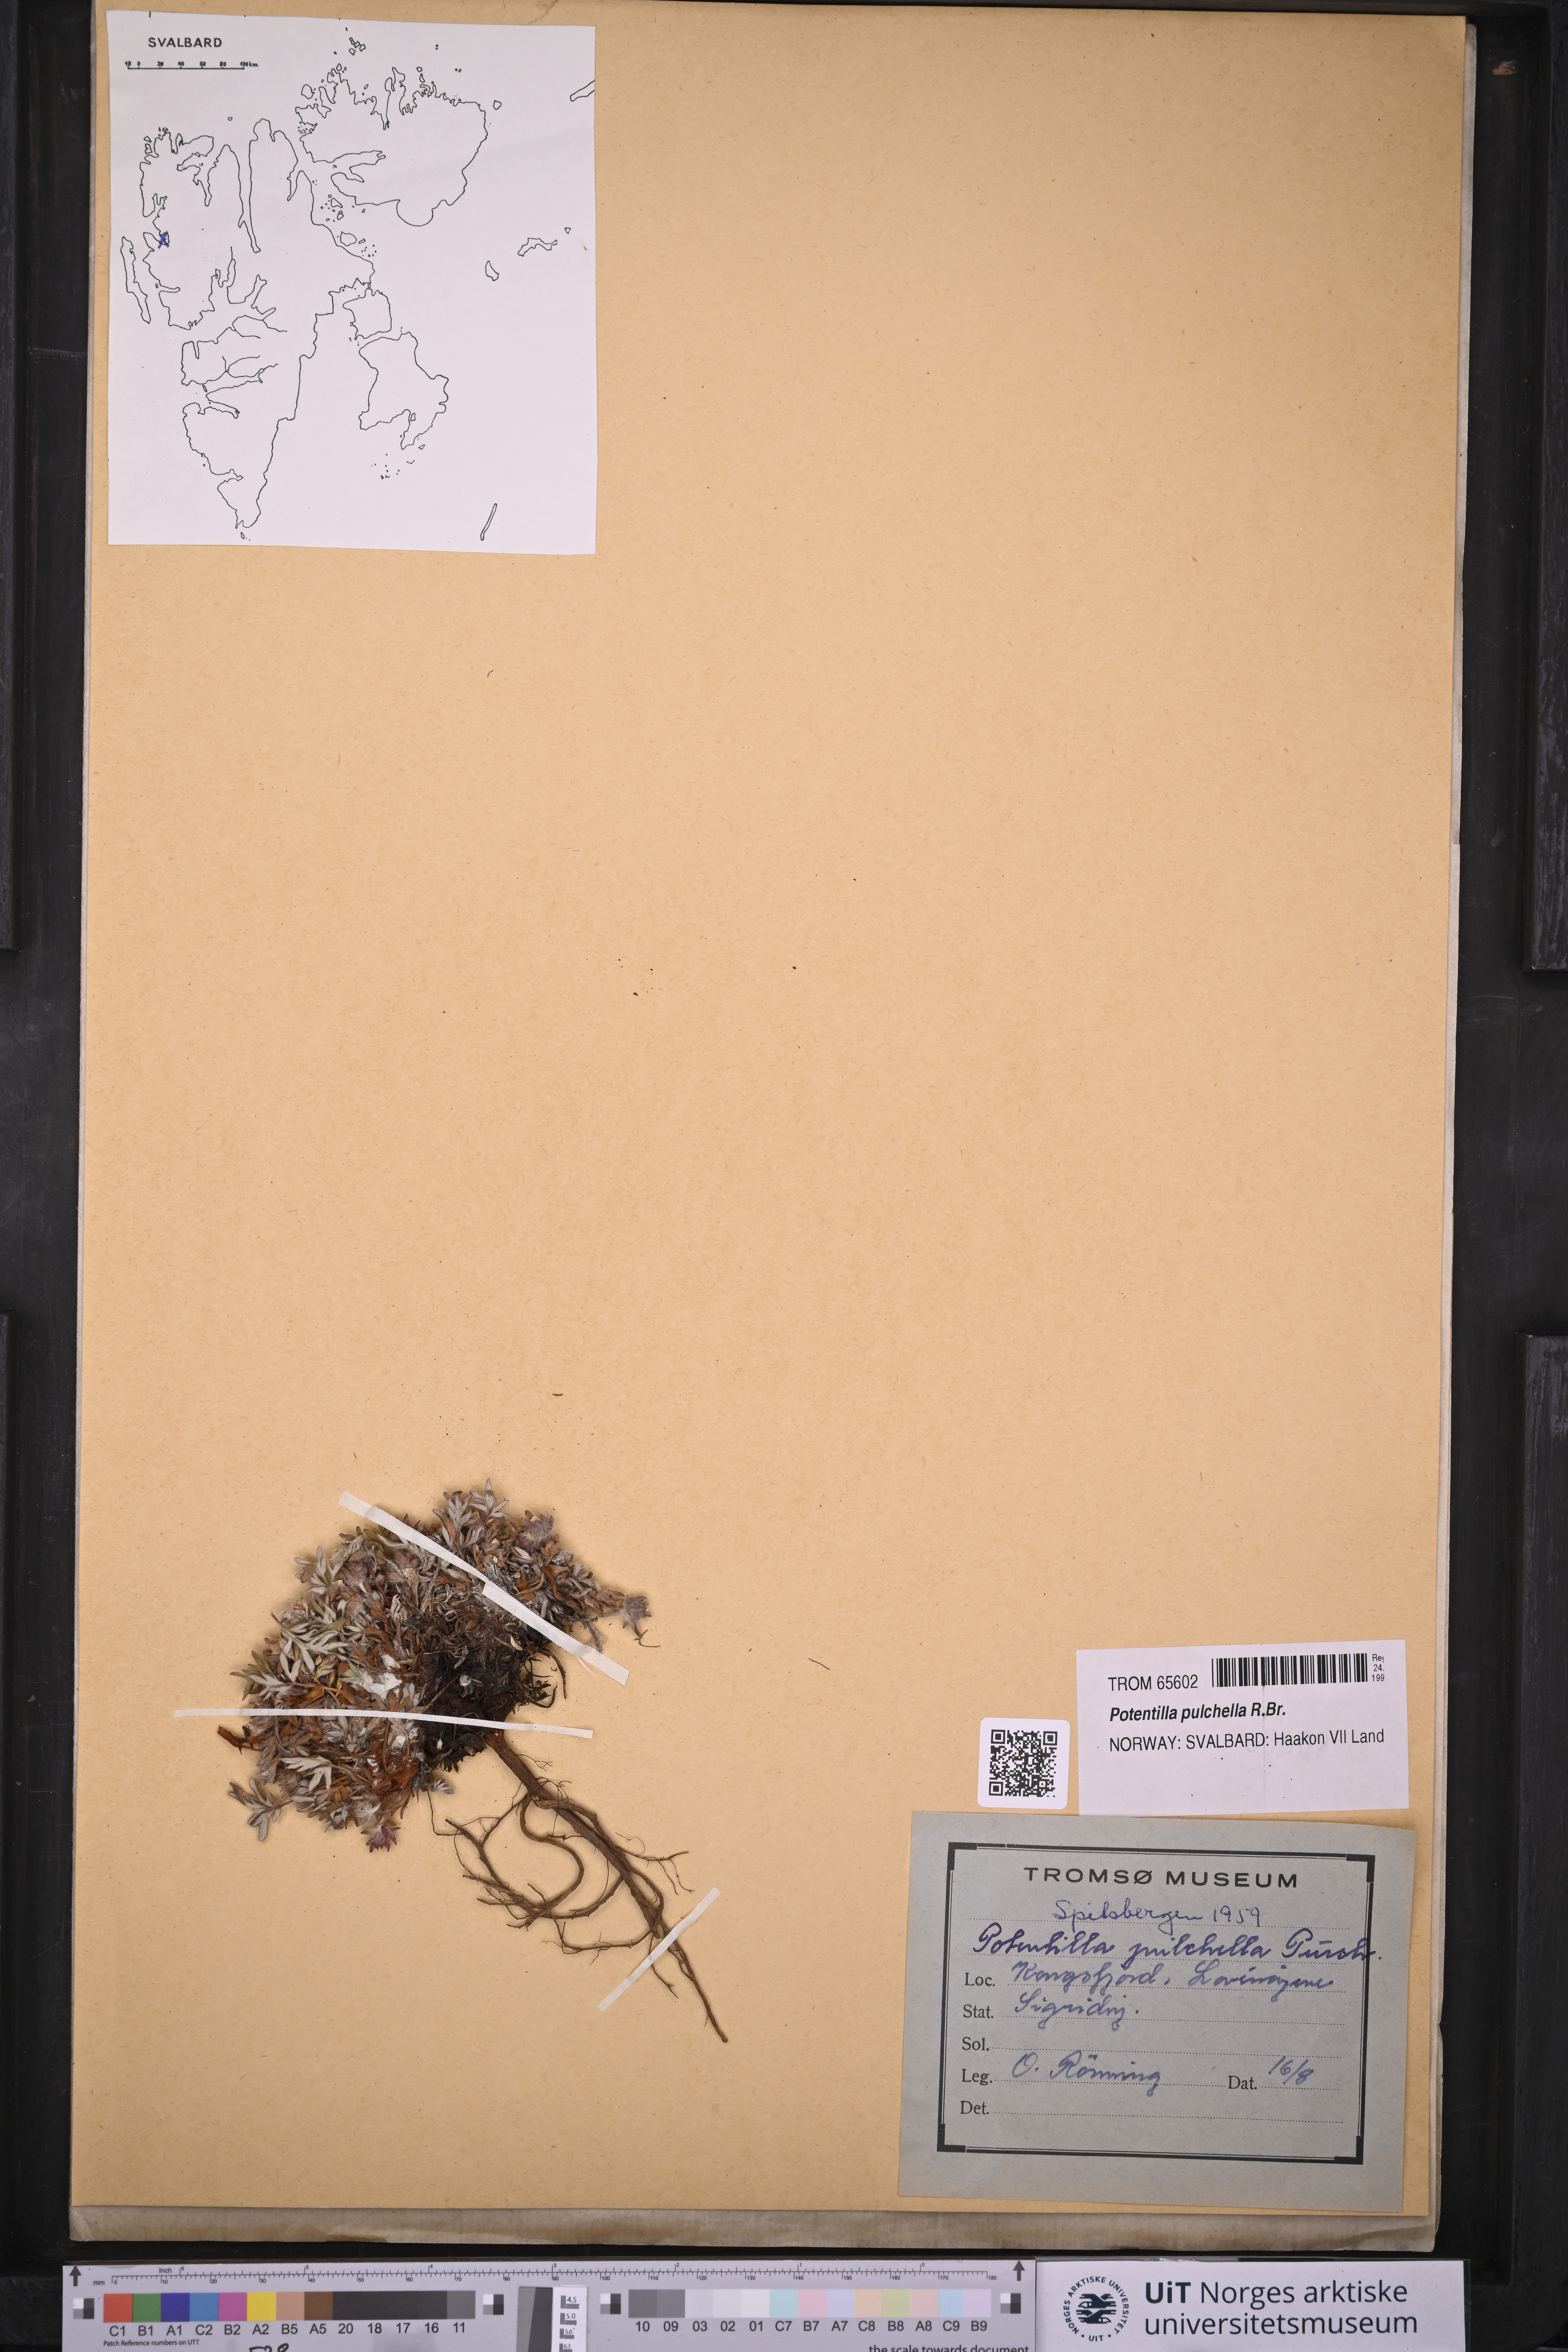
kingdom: Plantae
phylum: Tracheophyta
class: Magnoliopsida
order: Rosales
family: Rosaceae
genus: Potentilla
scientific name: Potentilla pulchella
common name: Pretty cinquefoil
